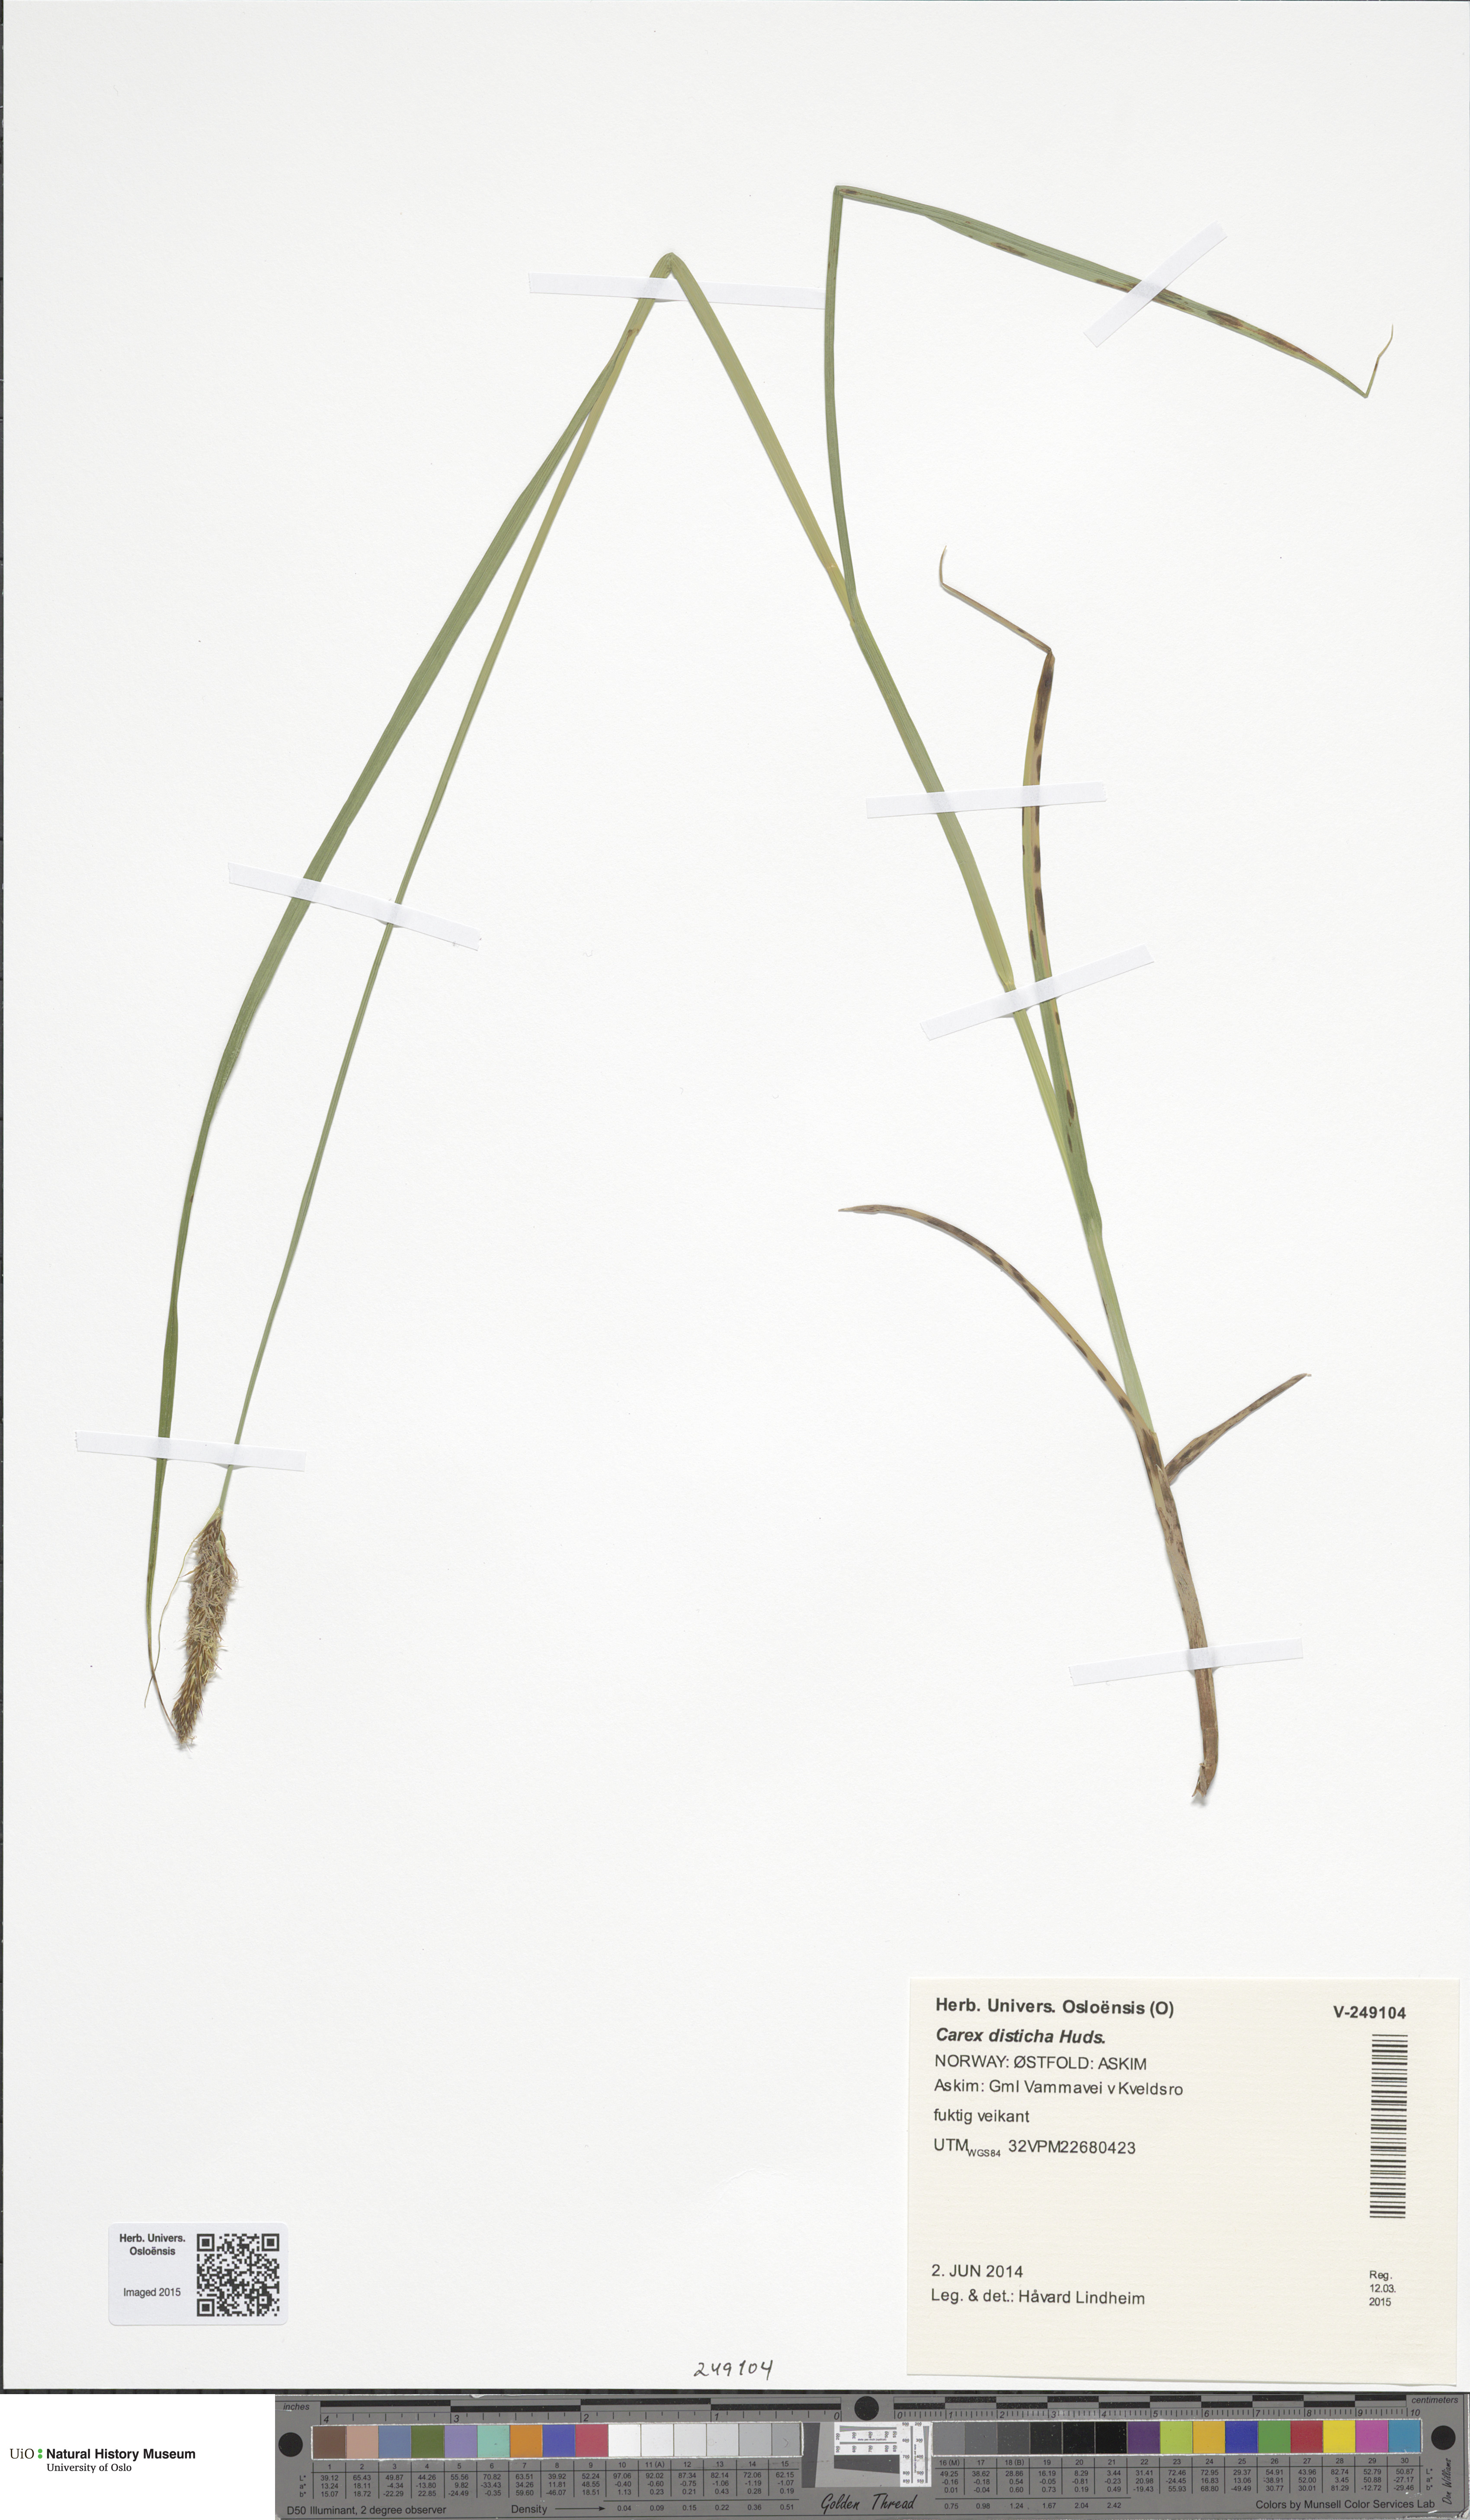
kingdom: Plantae
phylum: Tracheophyta
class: Liliopsida
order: Poales
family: Cyperaceae
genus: Carex
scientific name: Carex disticha
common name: Brown sedge
